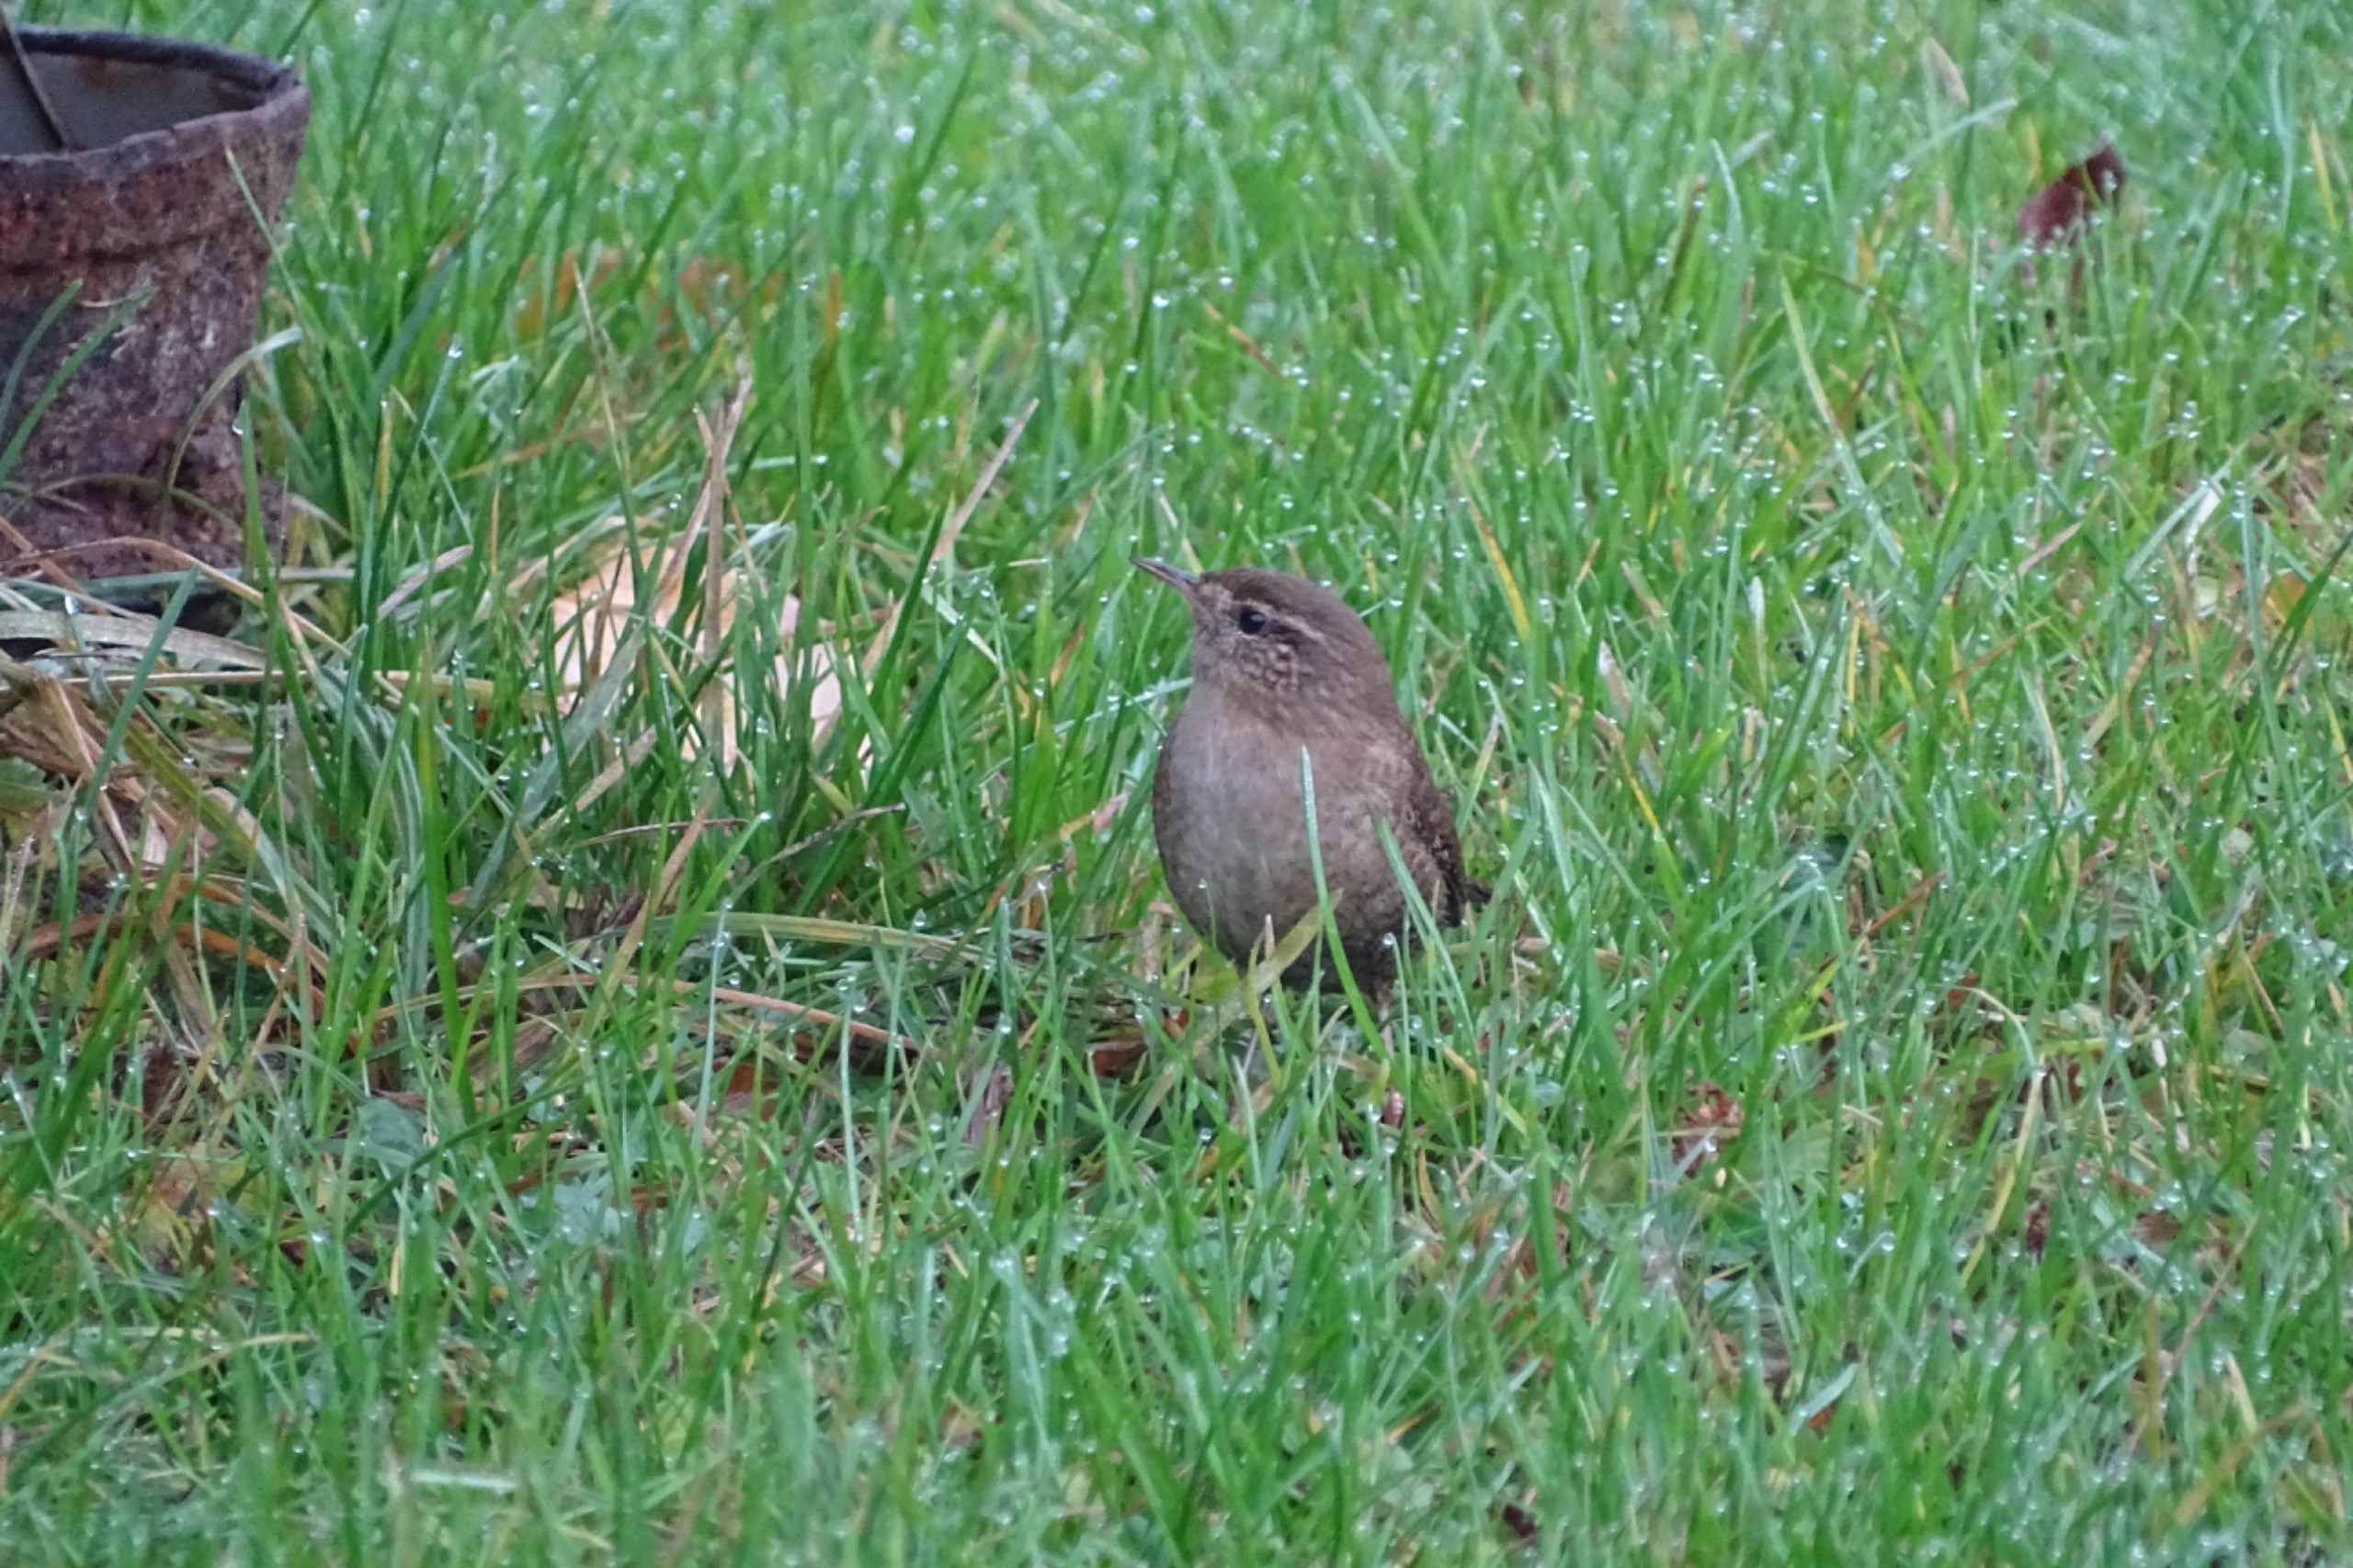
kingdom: Animalia
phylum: Chordata
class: Aves
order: Passeriformes
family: Troglodytidae
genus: Troglodytes
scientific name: Troglodytes troglodytes
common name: Gærdesmutte
